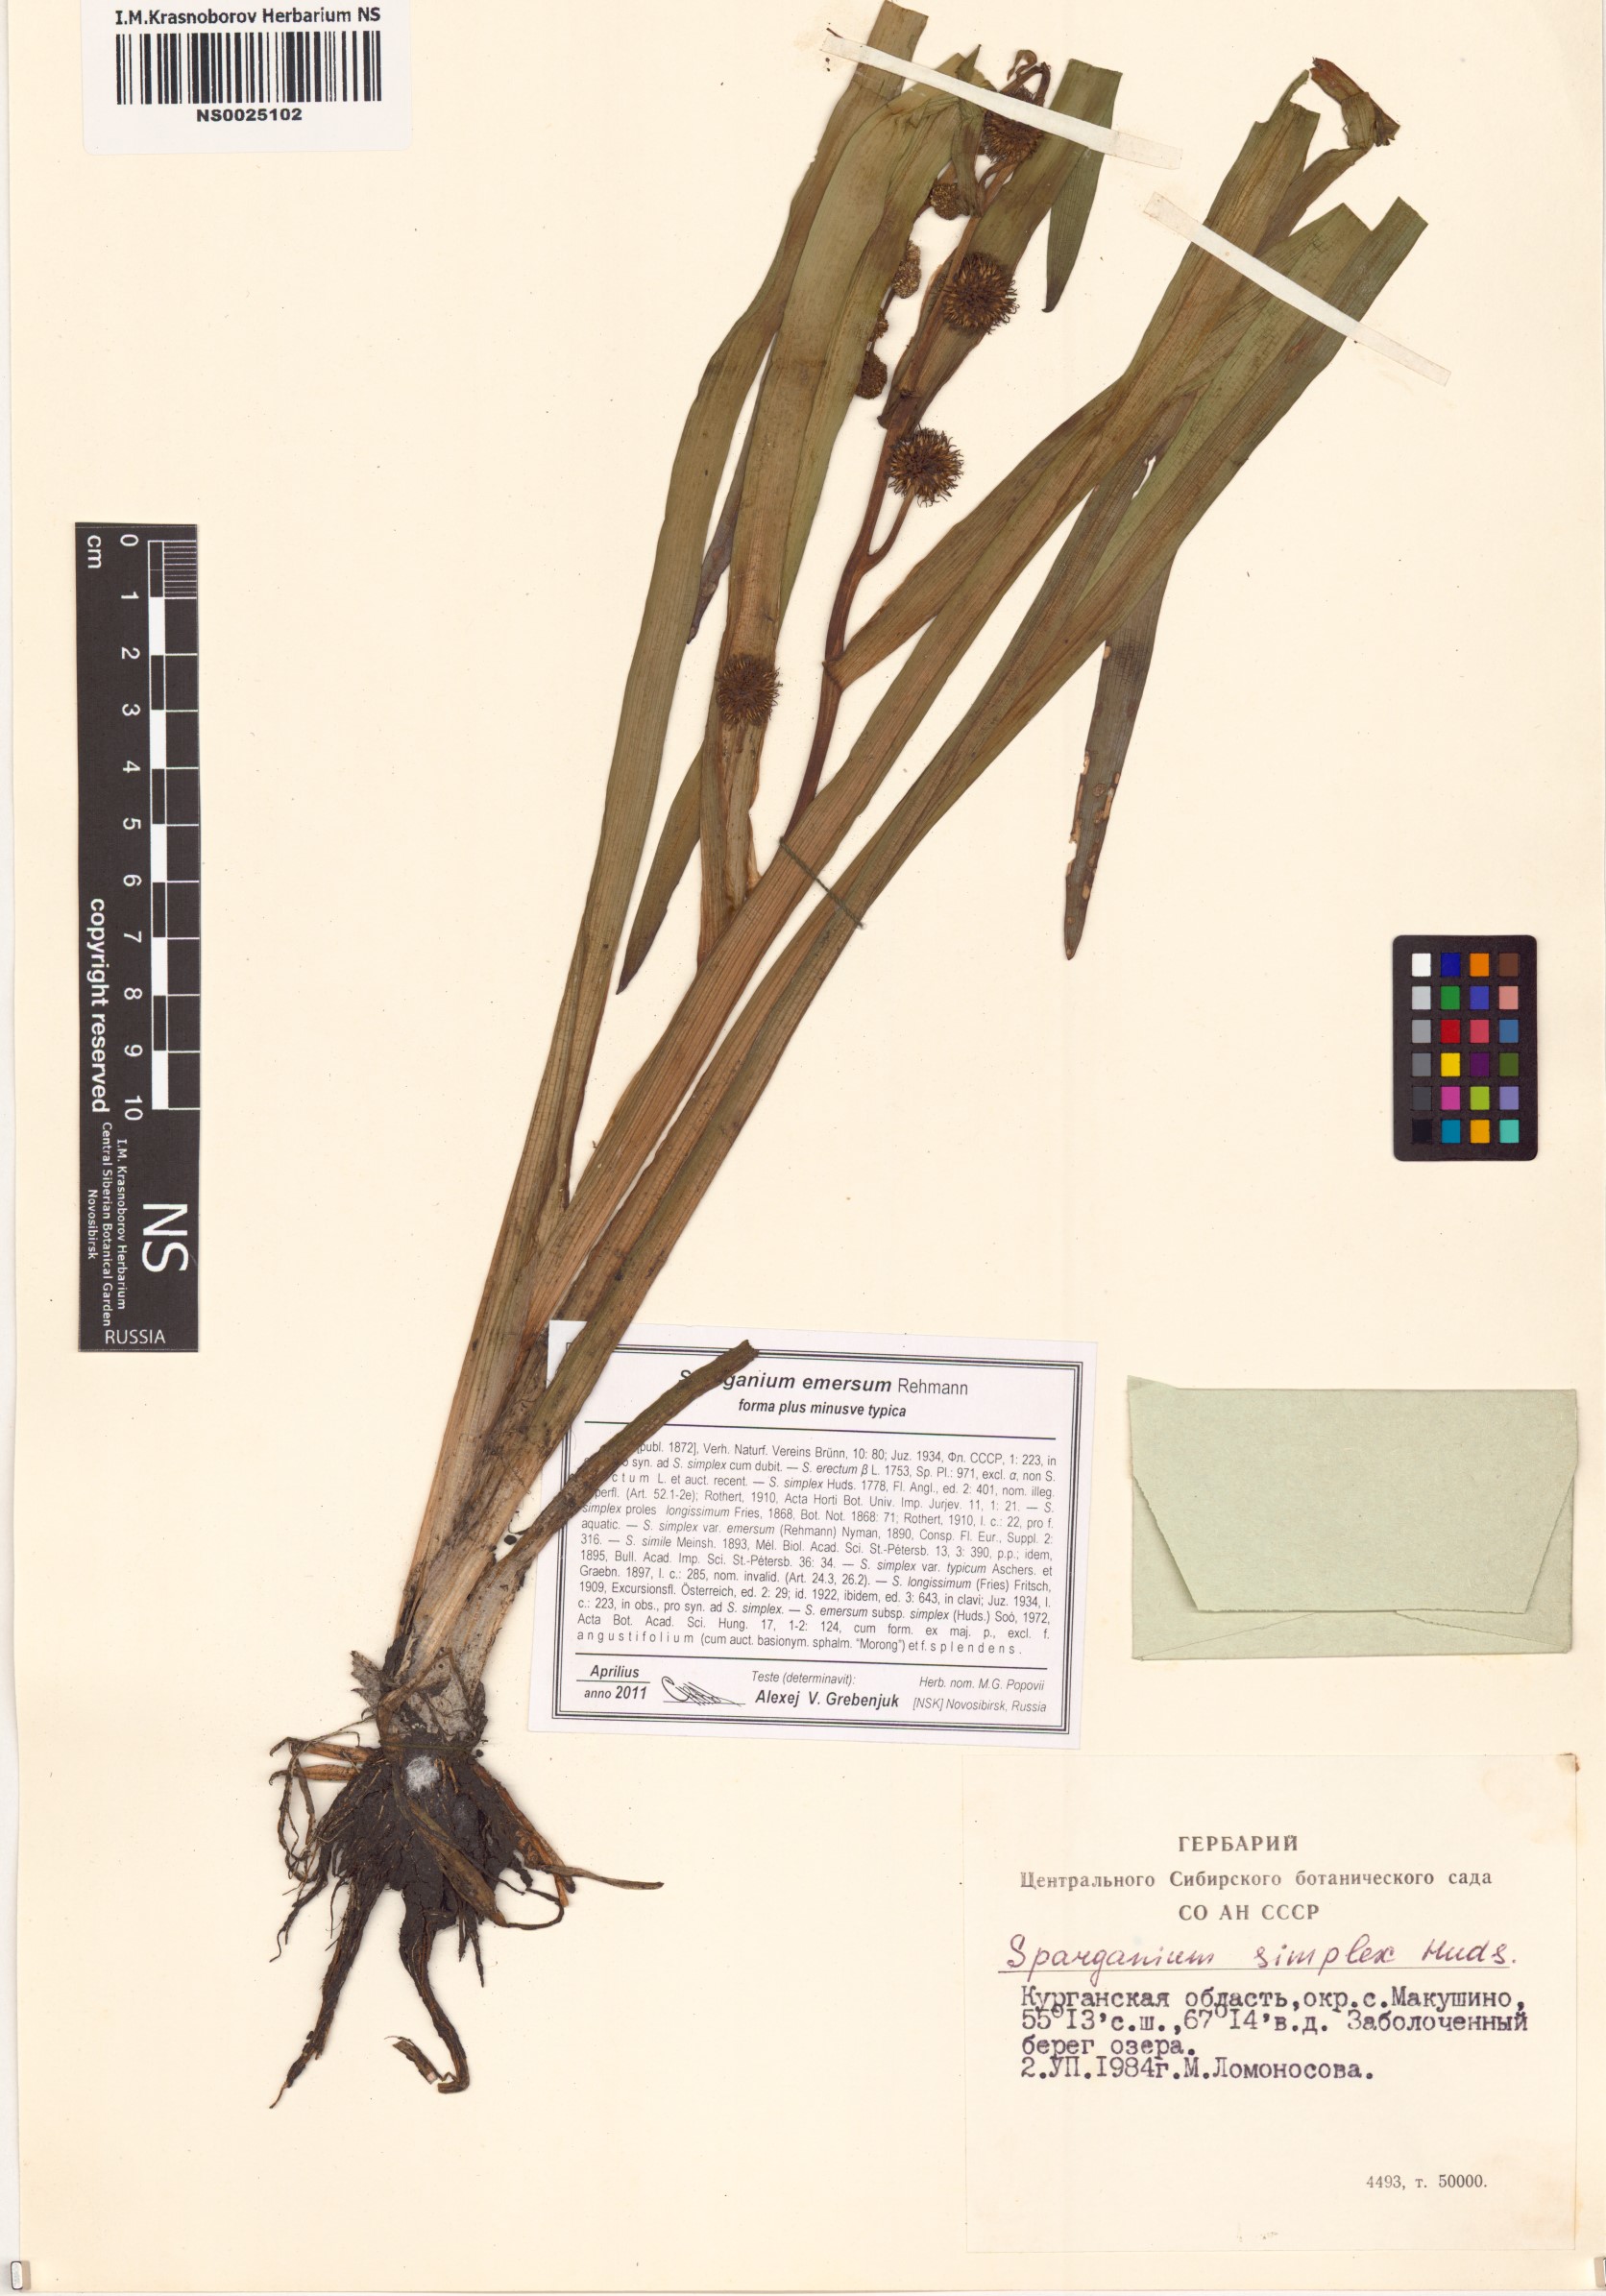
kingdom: Plantae
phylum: Tracheophyta
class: Liliopsida
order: Poales
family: Typhaceae
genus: Sparganium
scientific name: Sparganium emersum
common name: Unbranched bur-reed
